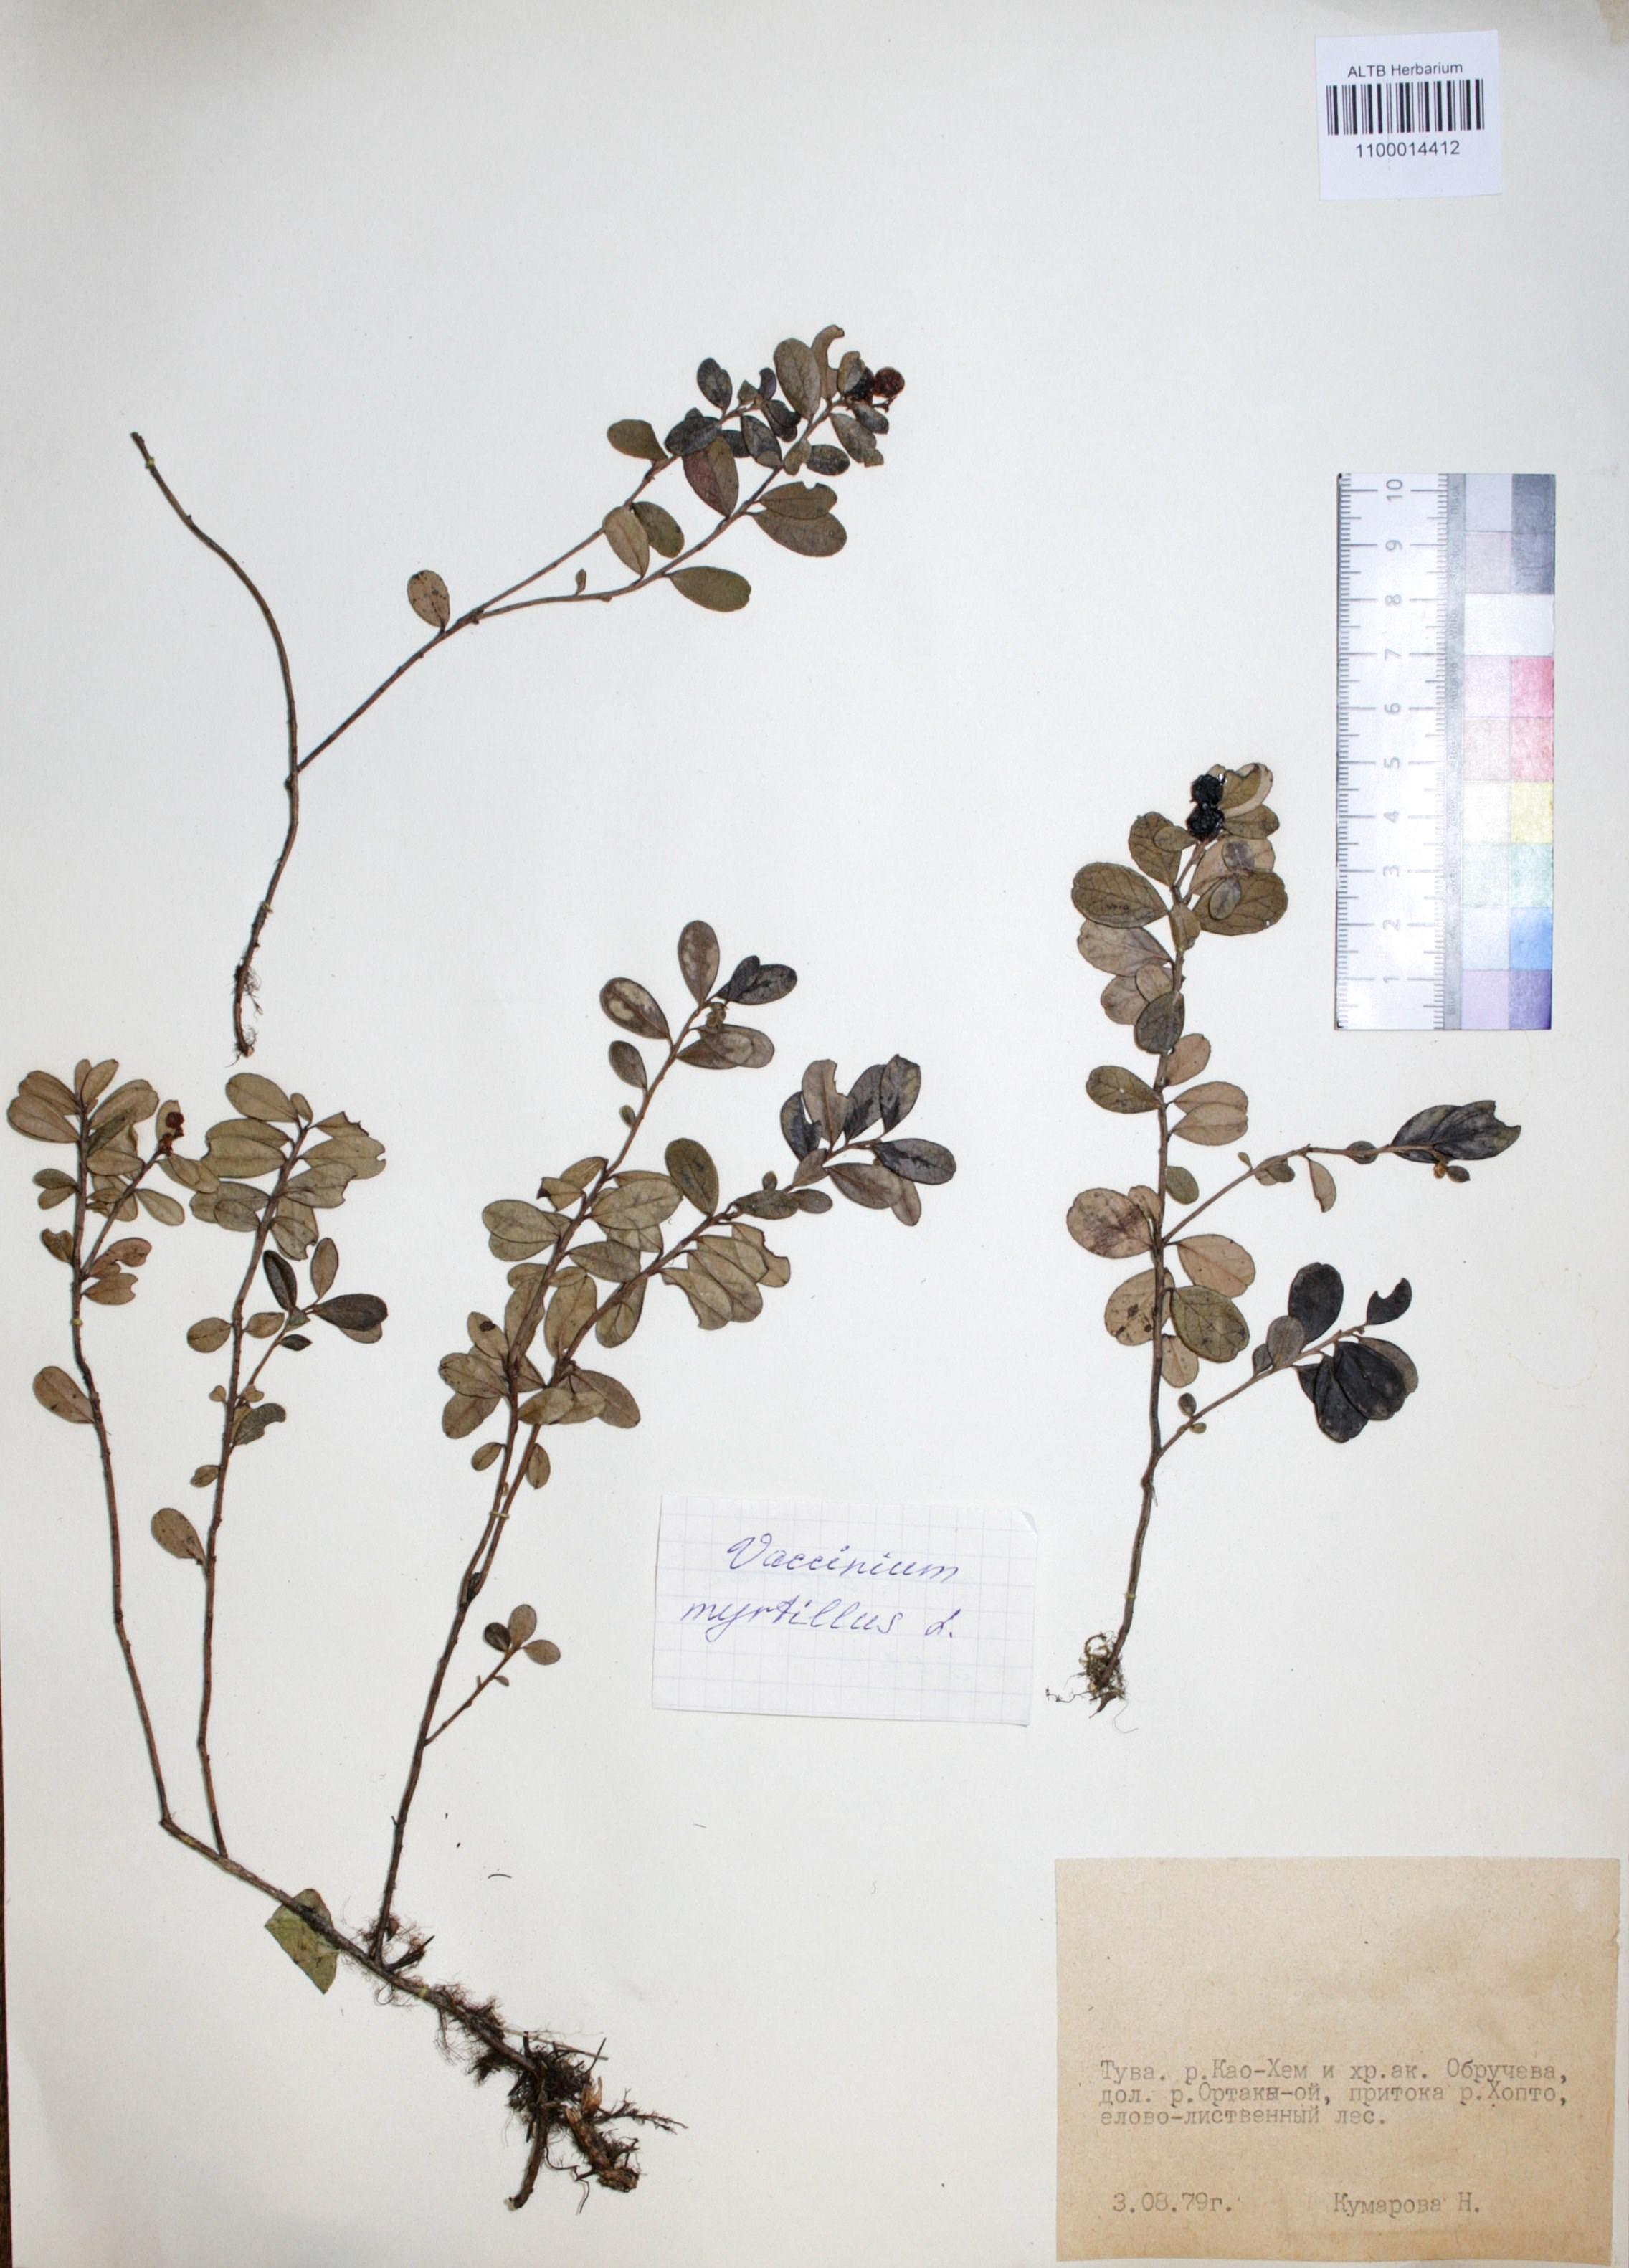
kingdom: Plantae
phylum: Tracheophyta
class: Magnoliopsida
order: Ericales
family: Ericaceae
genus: Vaccinium
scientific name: Vaccinium myrtillus
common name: Bilberry
